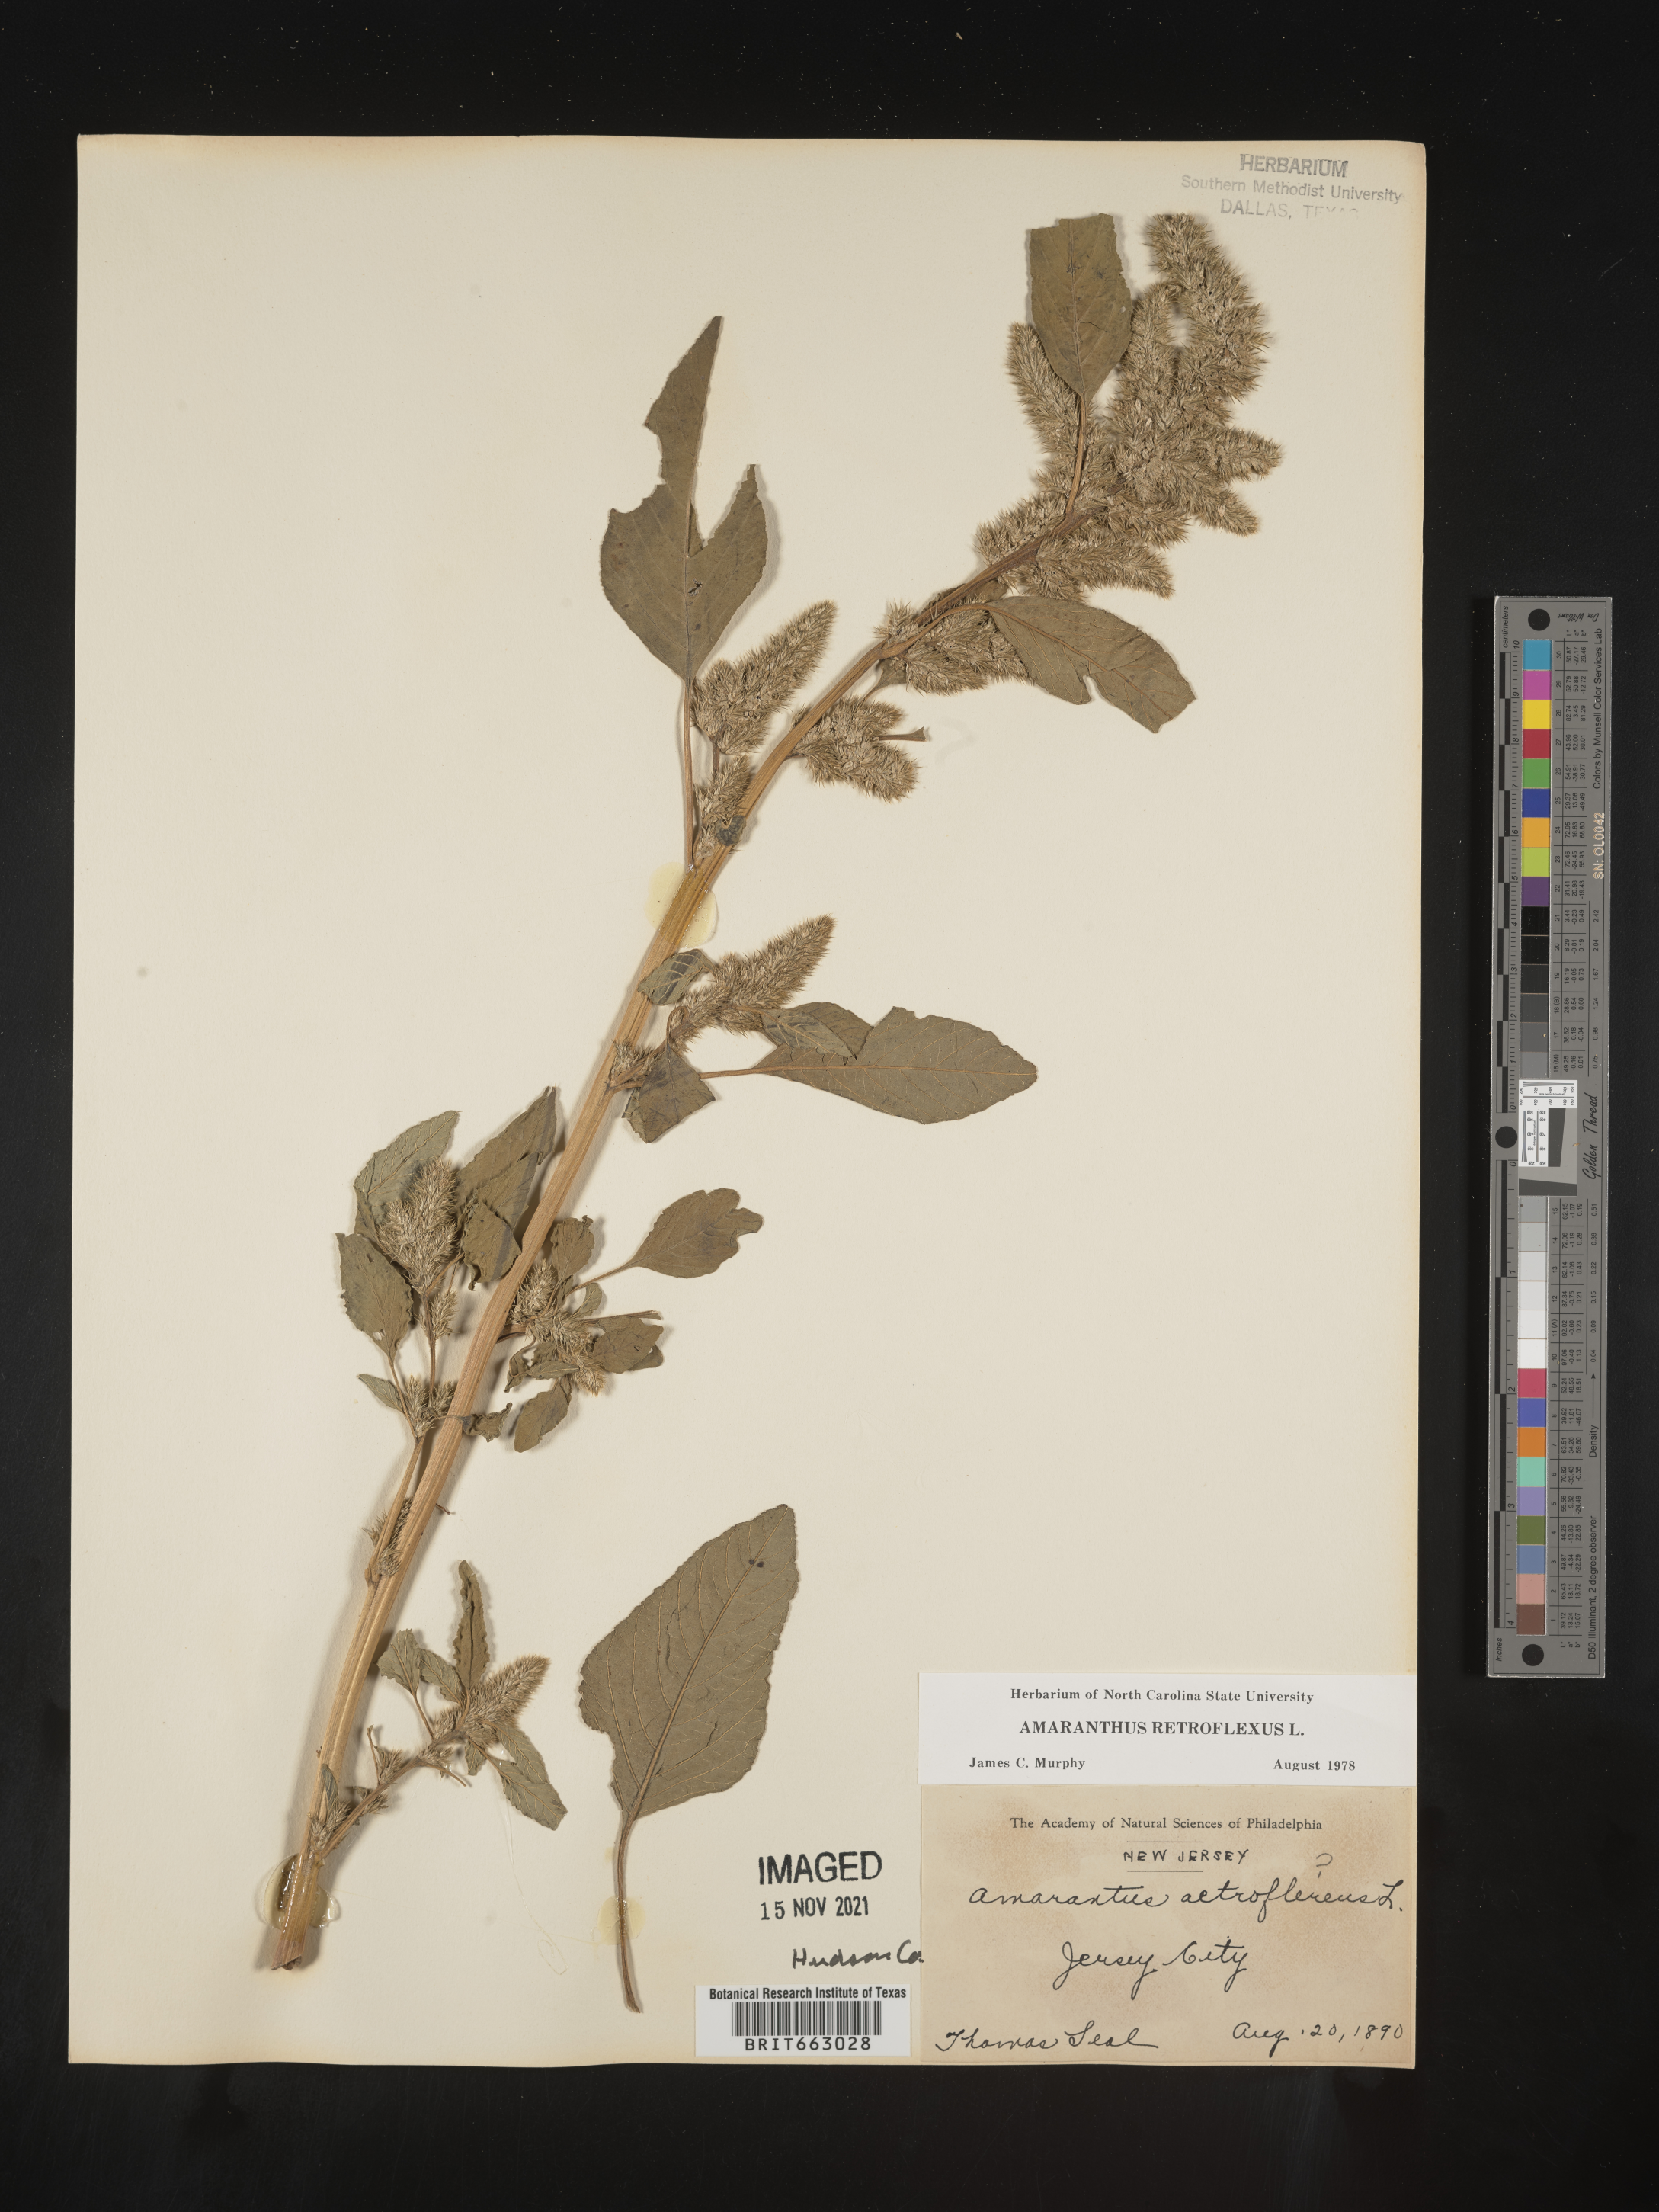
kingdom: Plantae
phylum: Tracheophyta
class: Magnoliopsida
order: Caryophyllales
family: Amaranthaceae
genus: Amaranthus
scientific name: Amaranthus retroflexus
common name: Redroot amaranth
